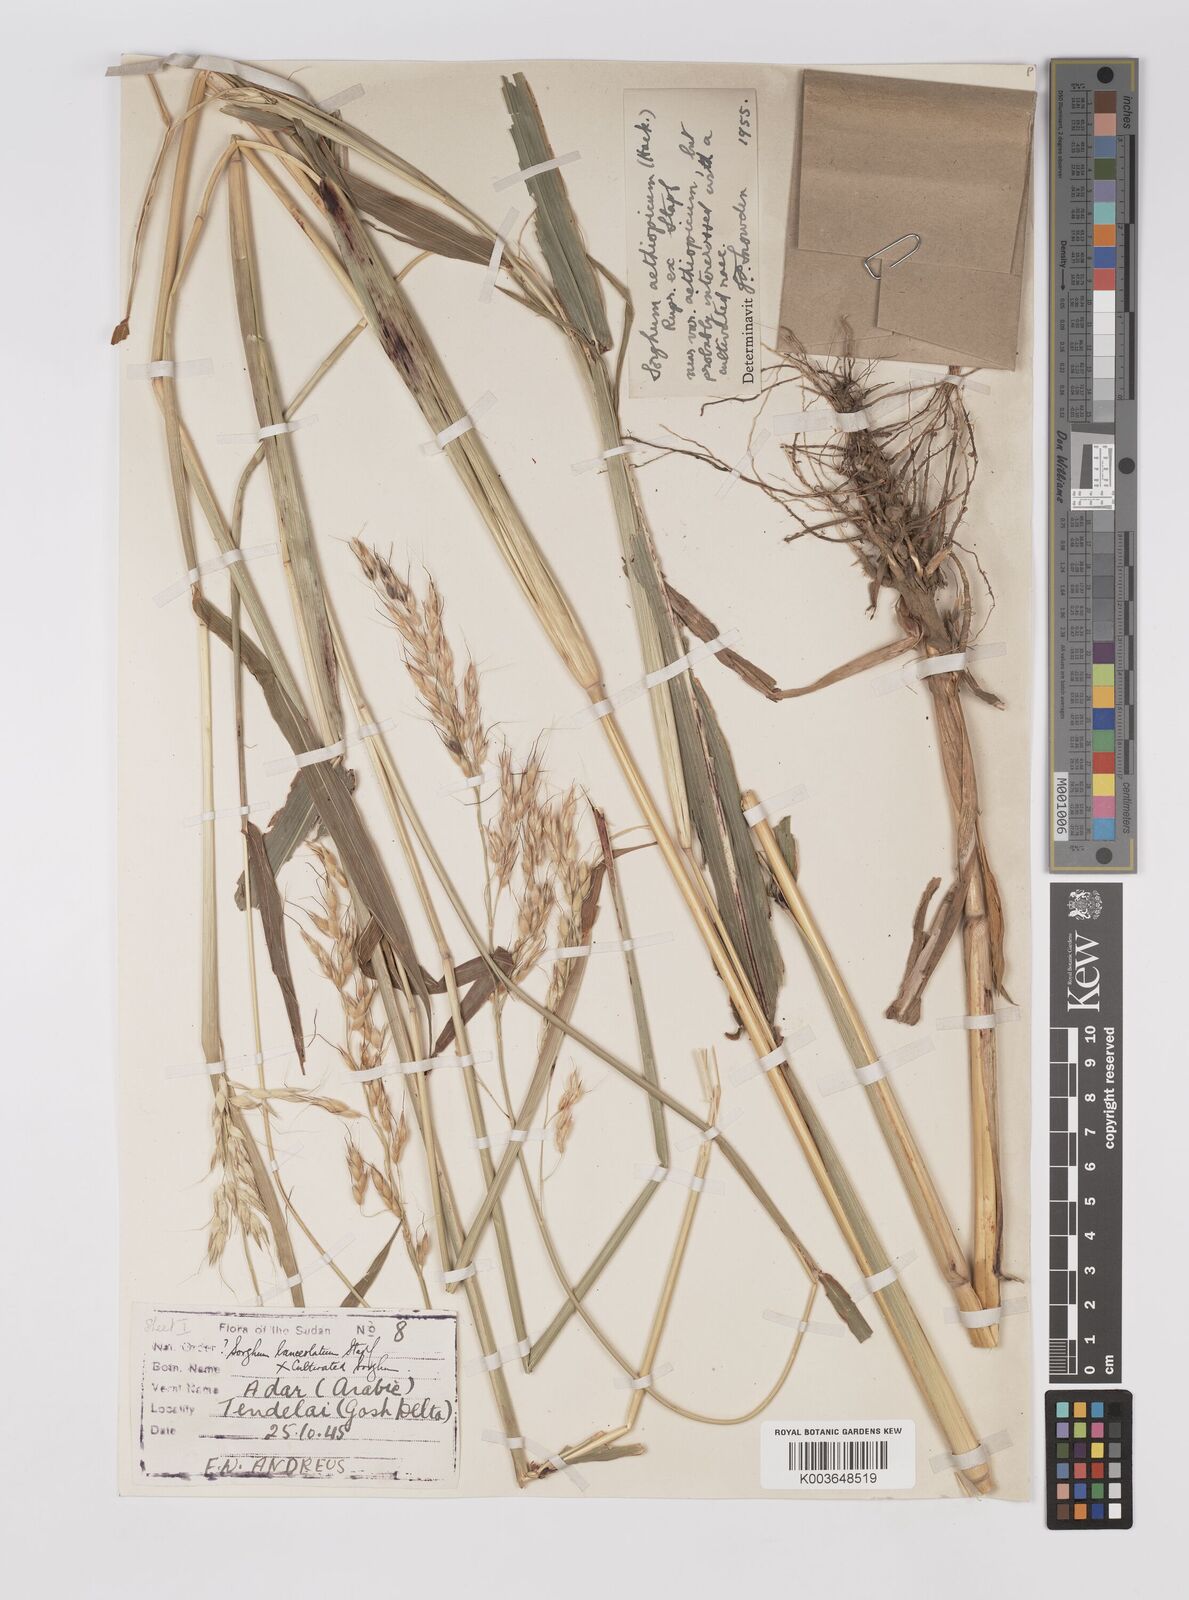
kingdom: Plantae
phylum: Tracheophyta
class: Liliopsida
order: Poales
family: Poaceae
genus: Sorghum
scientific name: Sorghum drummondii
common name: Sudangrass
